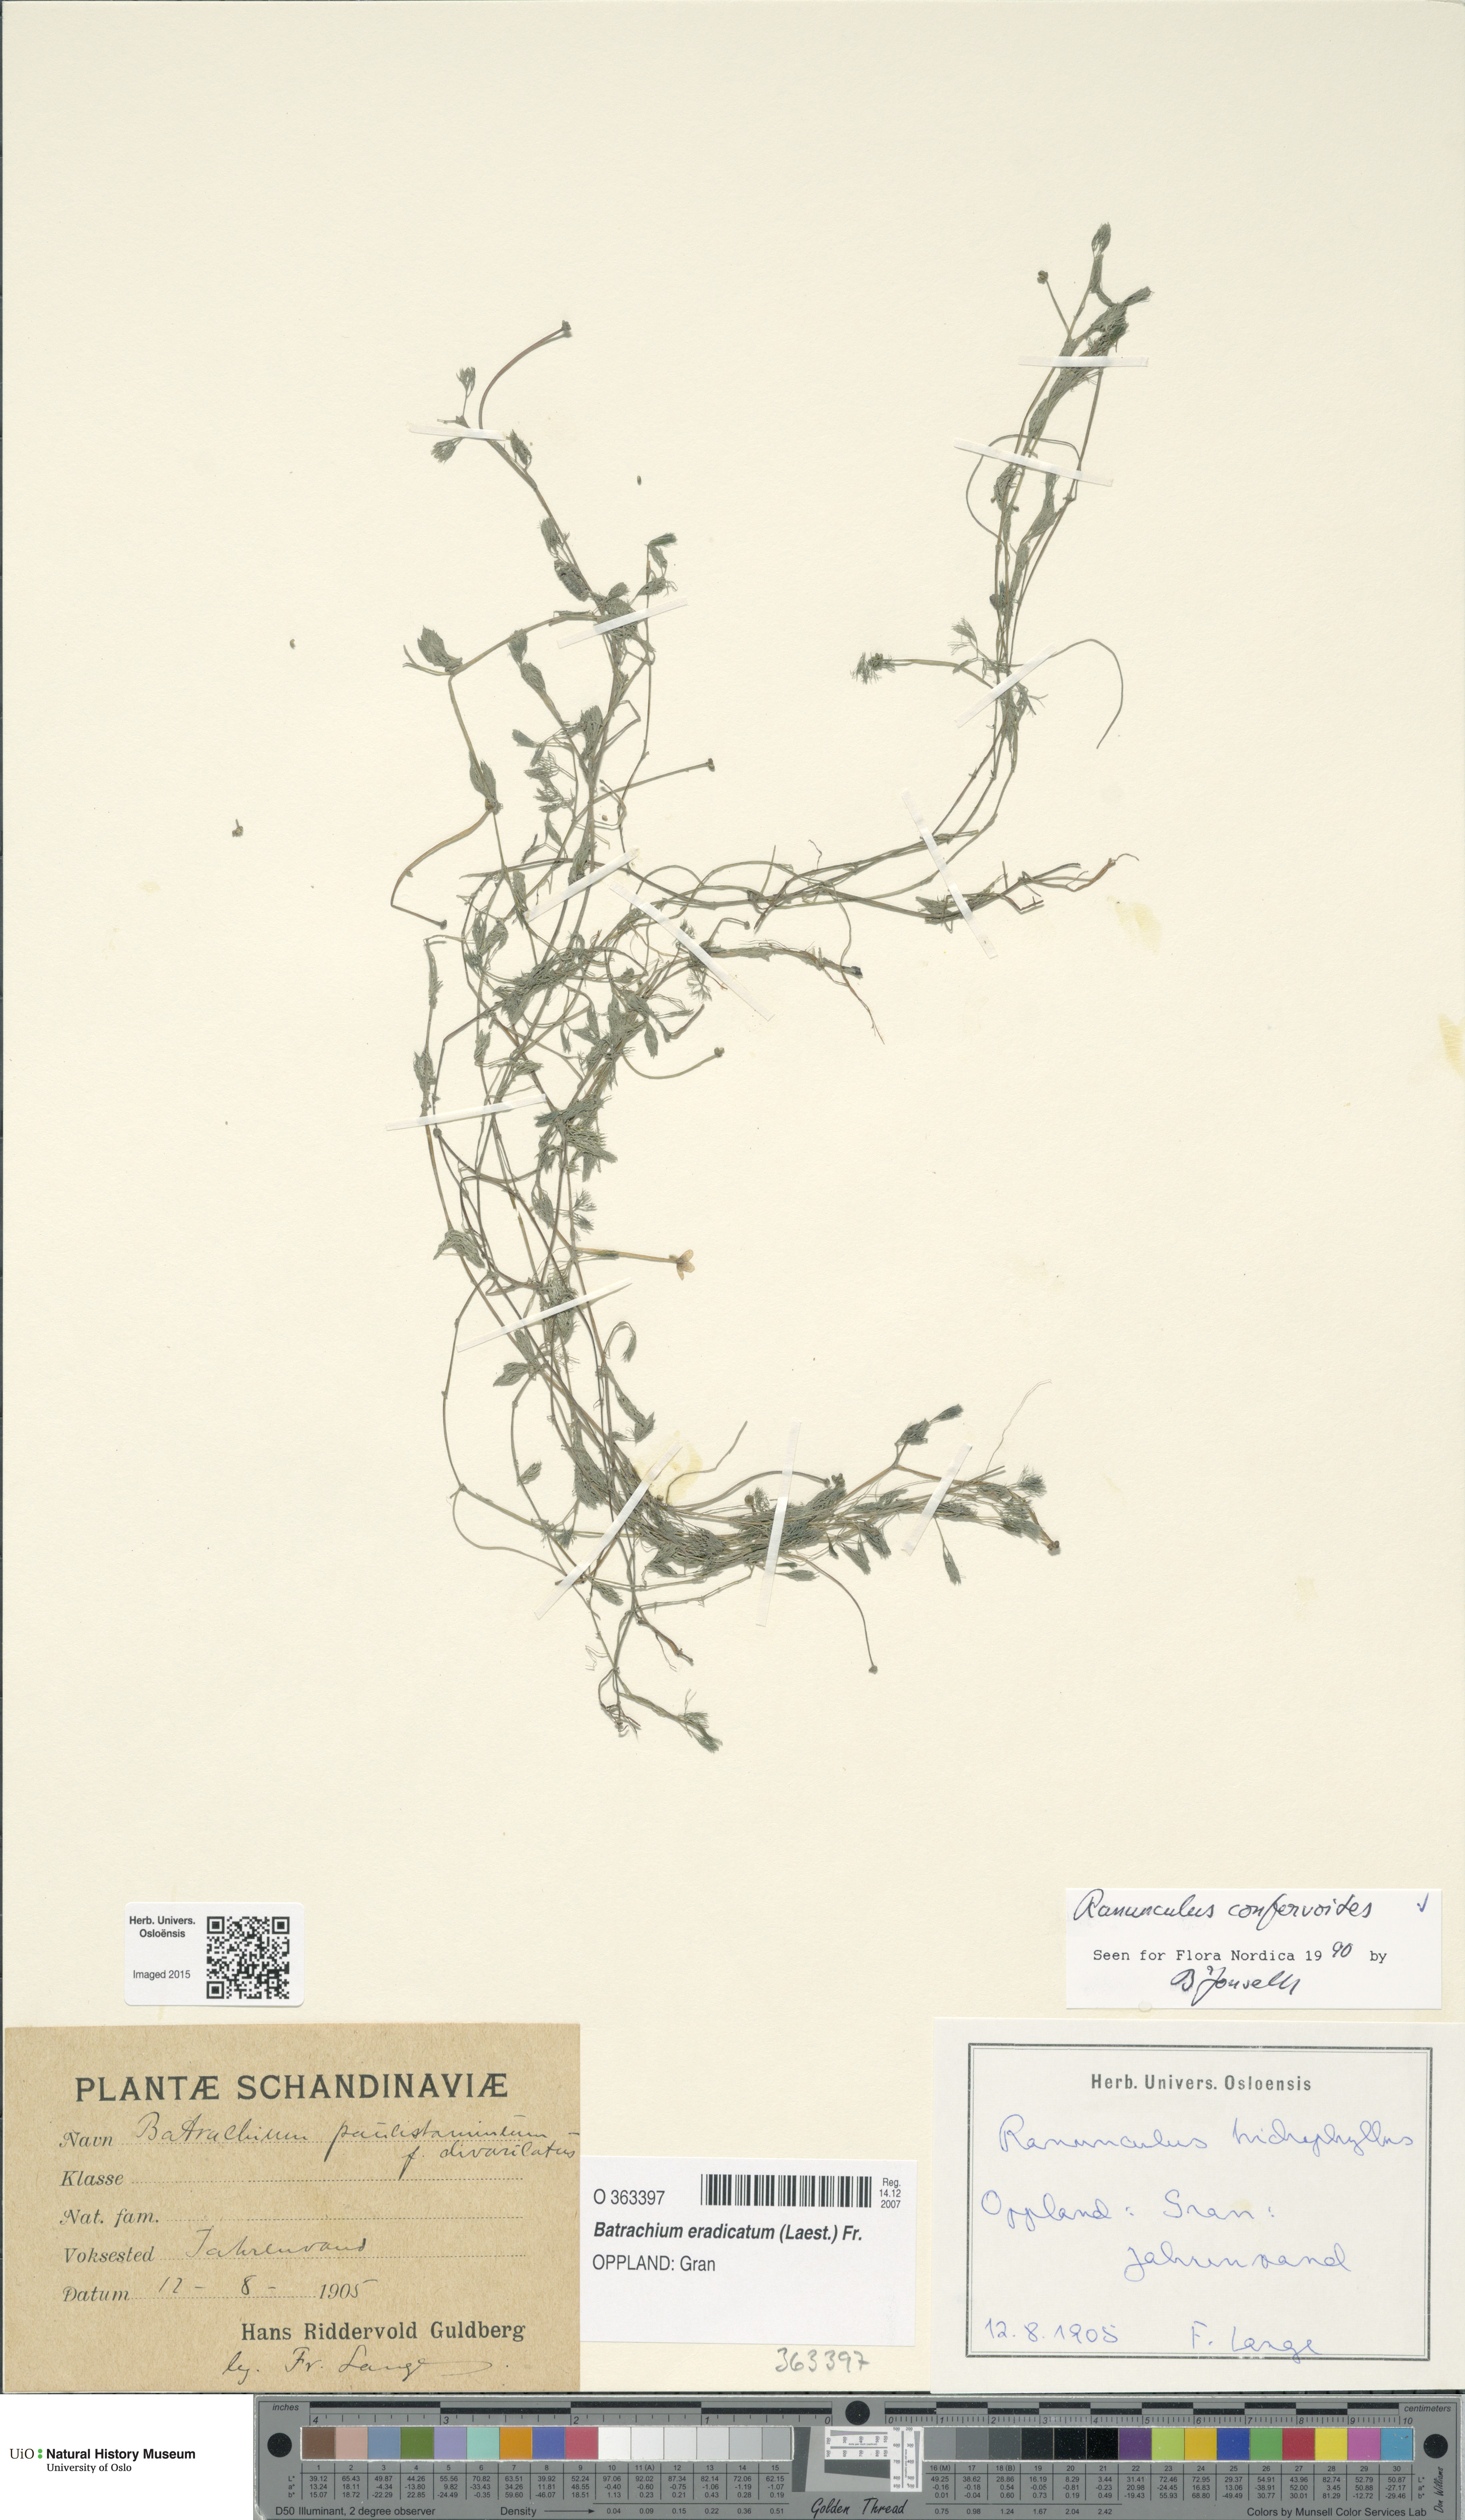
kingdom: Plantae
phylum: Tracheophyta
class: Magnoliopsida
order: Ranunculales
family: Ranunculaceae
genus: Ranunculus
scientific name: Ranunculus confervoides
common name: Delicate buttercup
